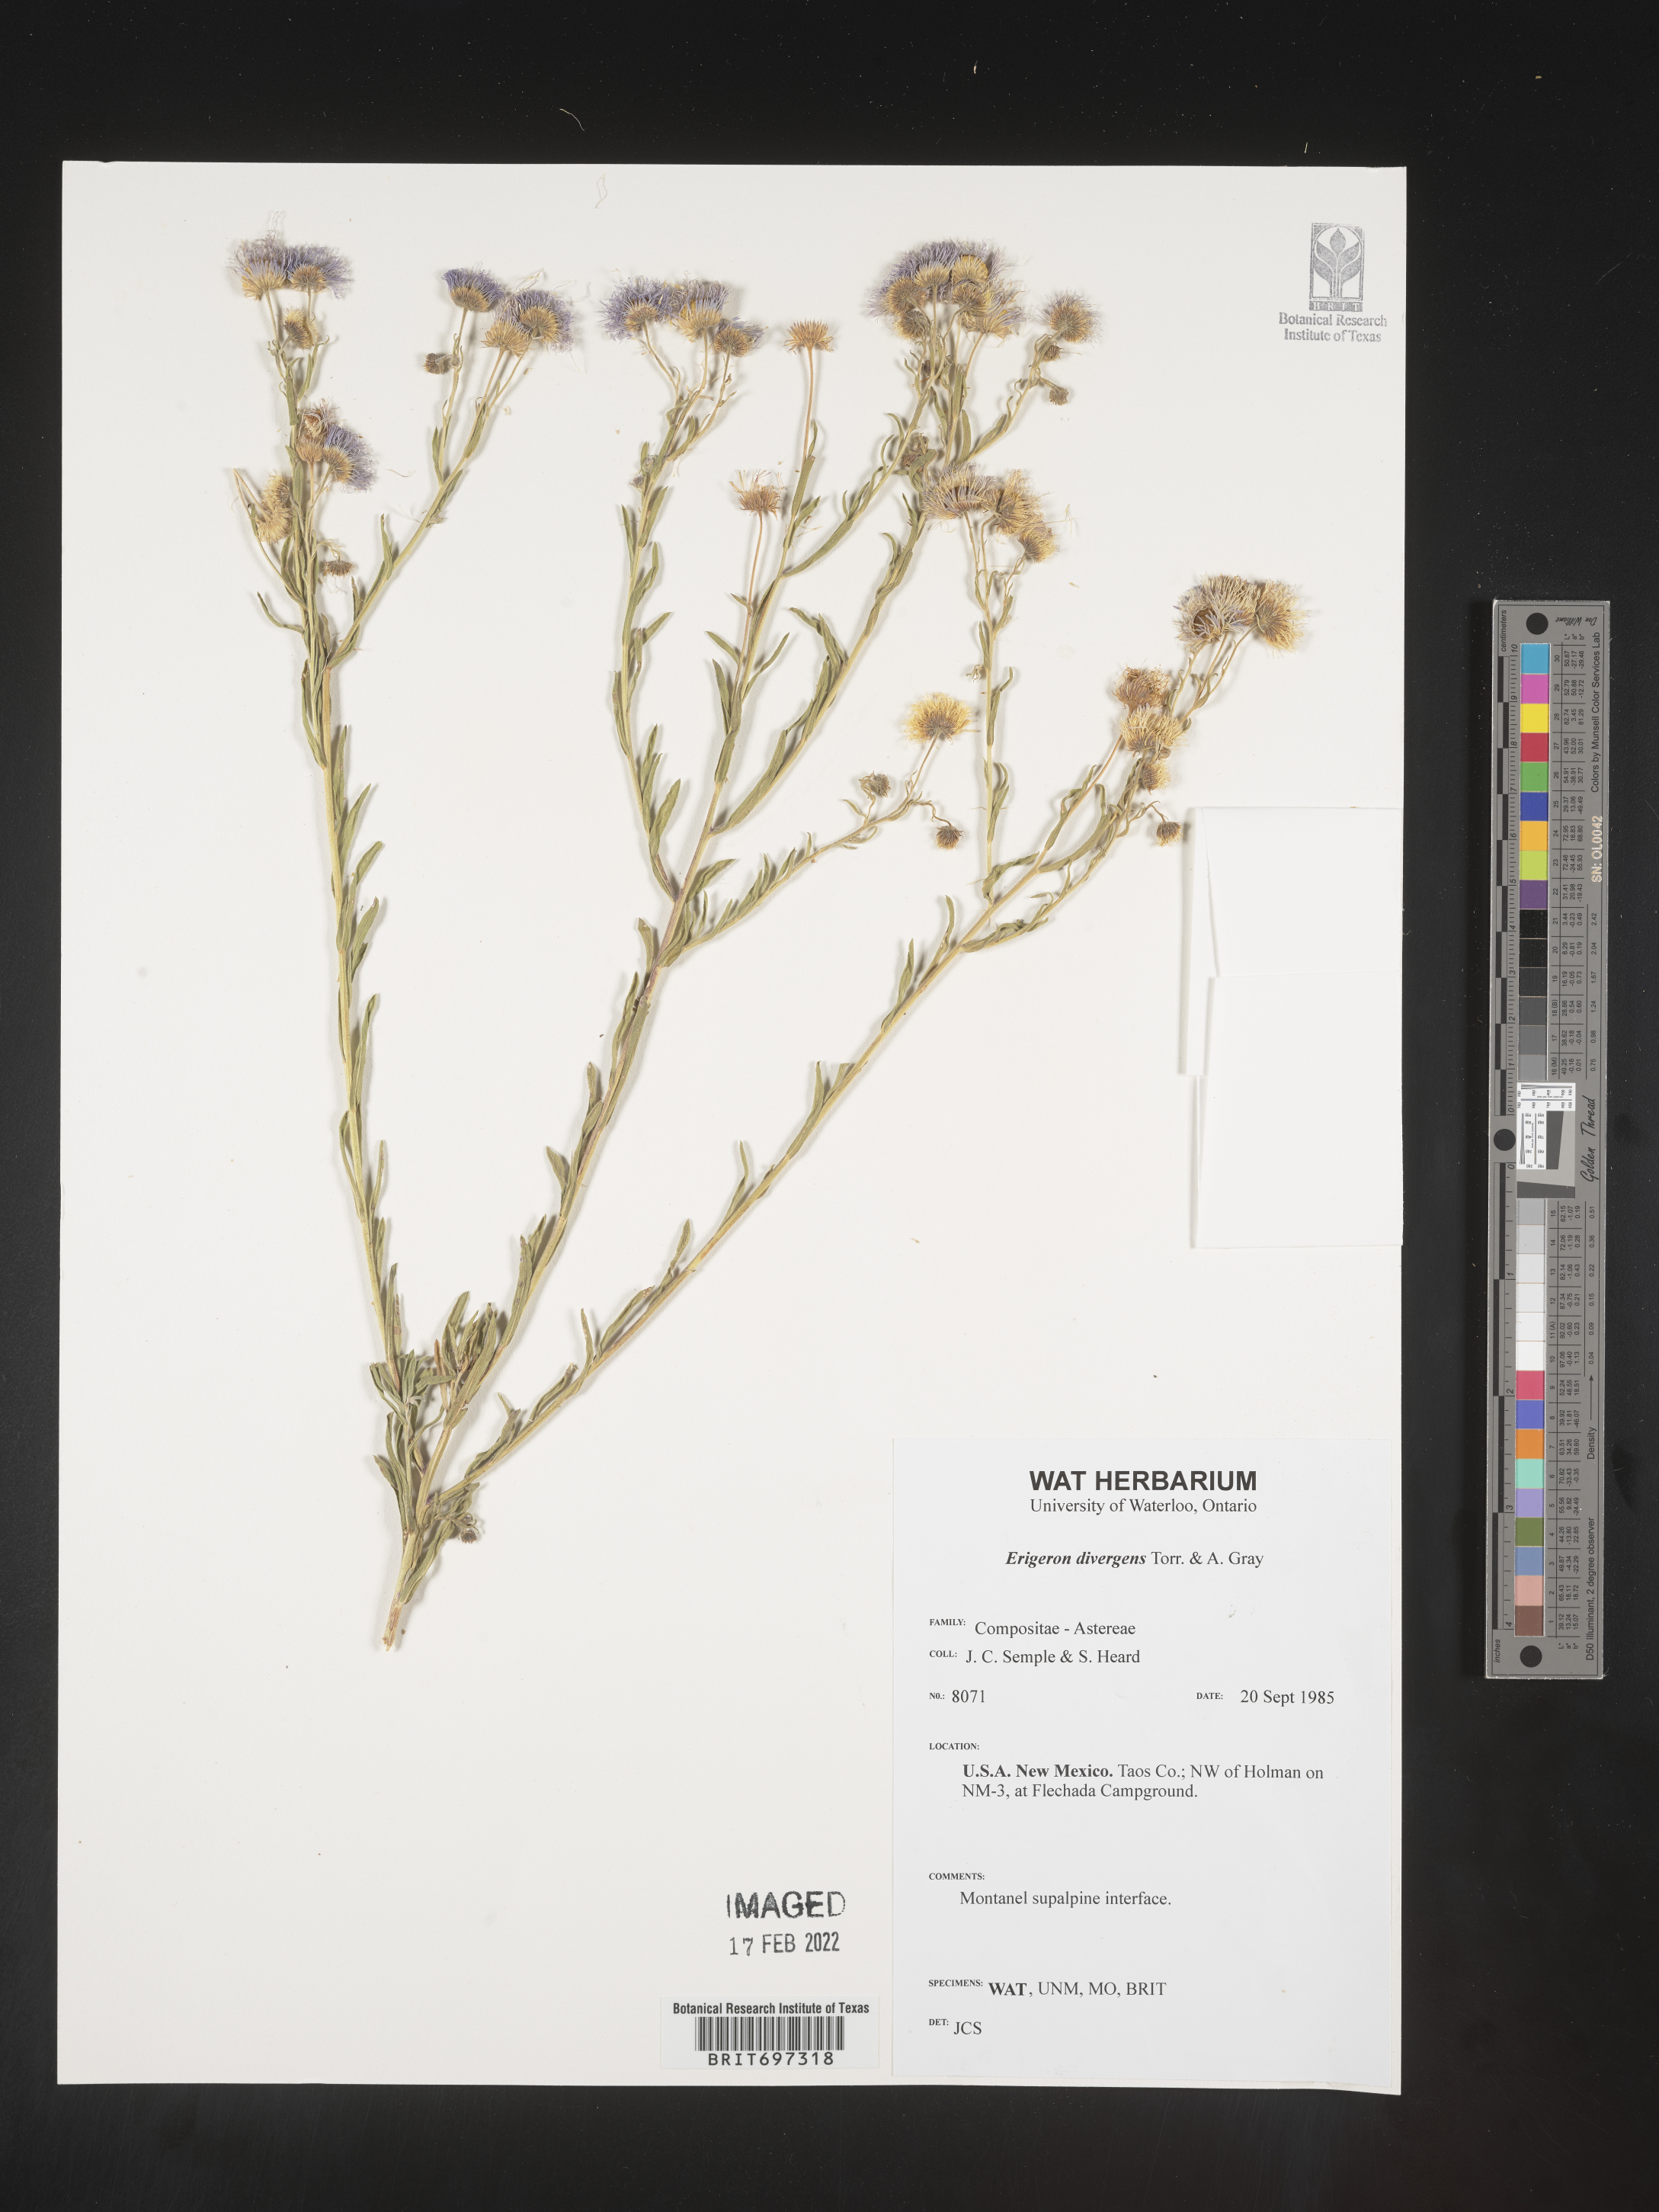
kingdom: Plantae
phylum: Tracheophyta
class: Magnoliopsida
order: Asterales
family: Asteraceae
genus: Erigeron
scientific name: Erigeron divergens
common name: Diffuse fleabane
